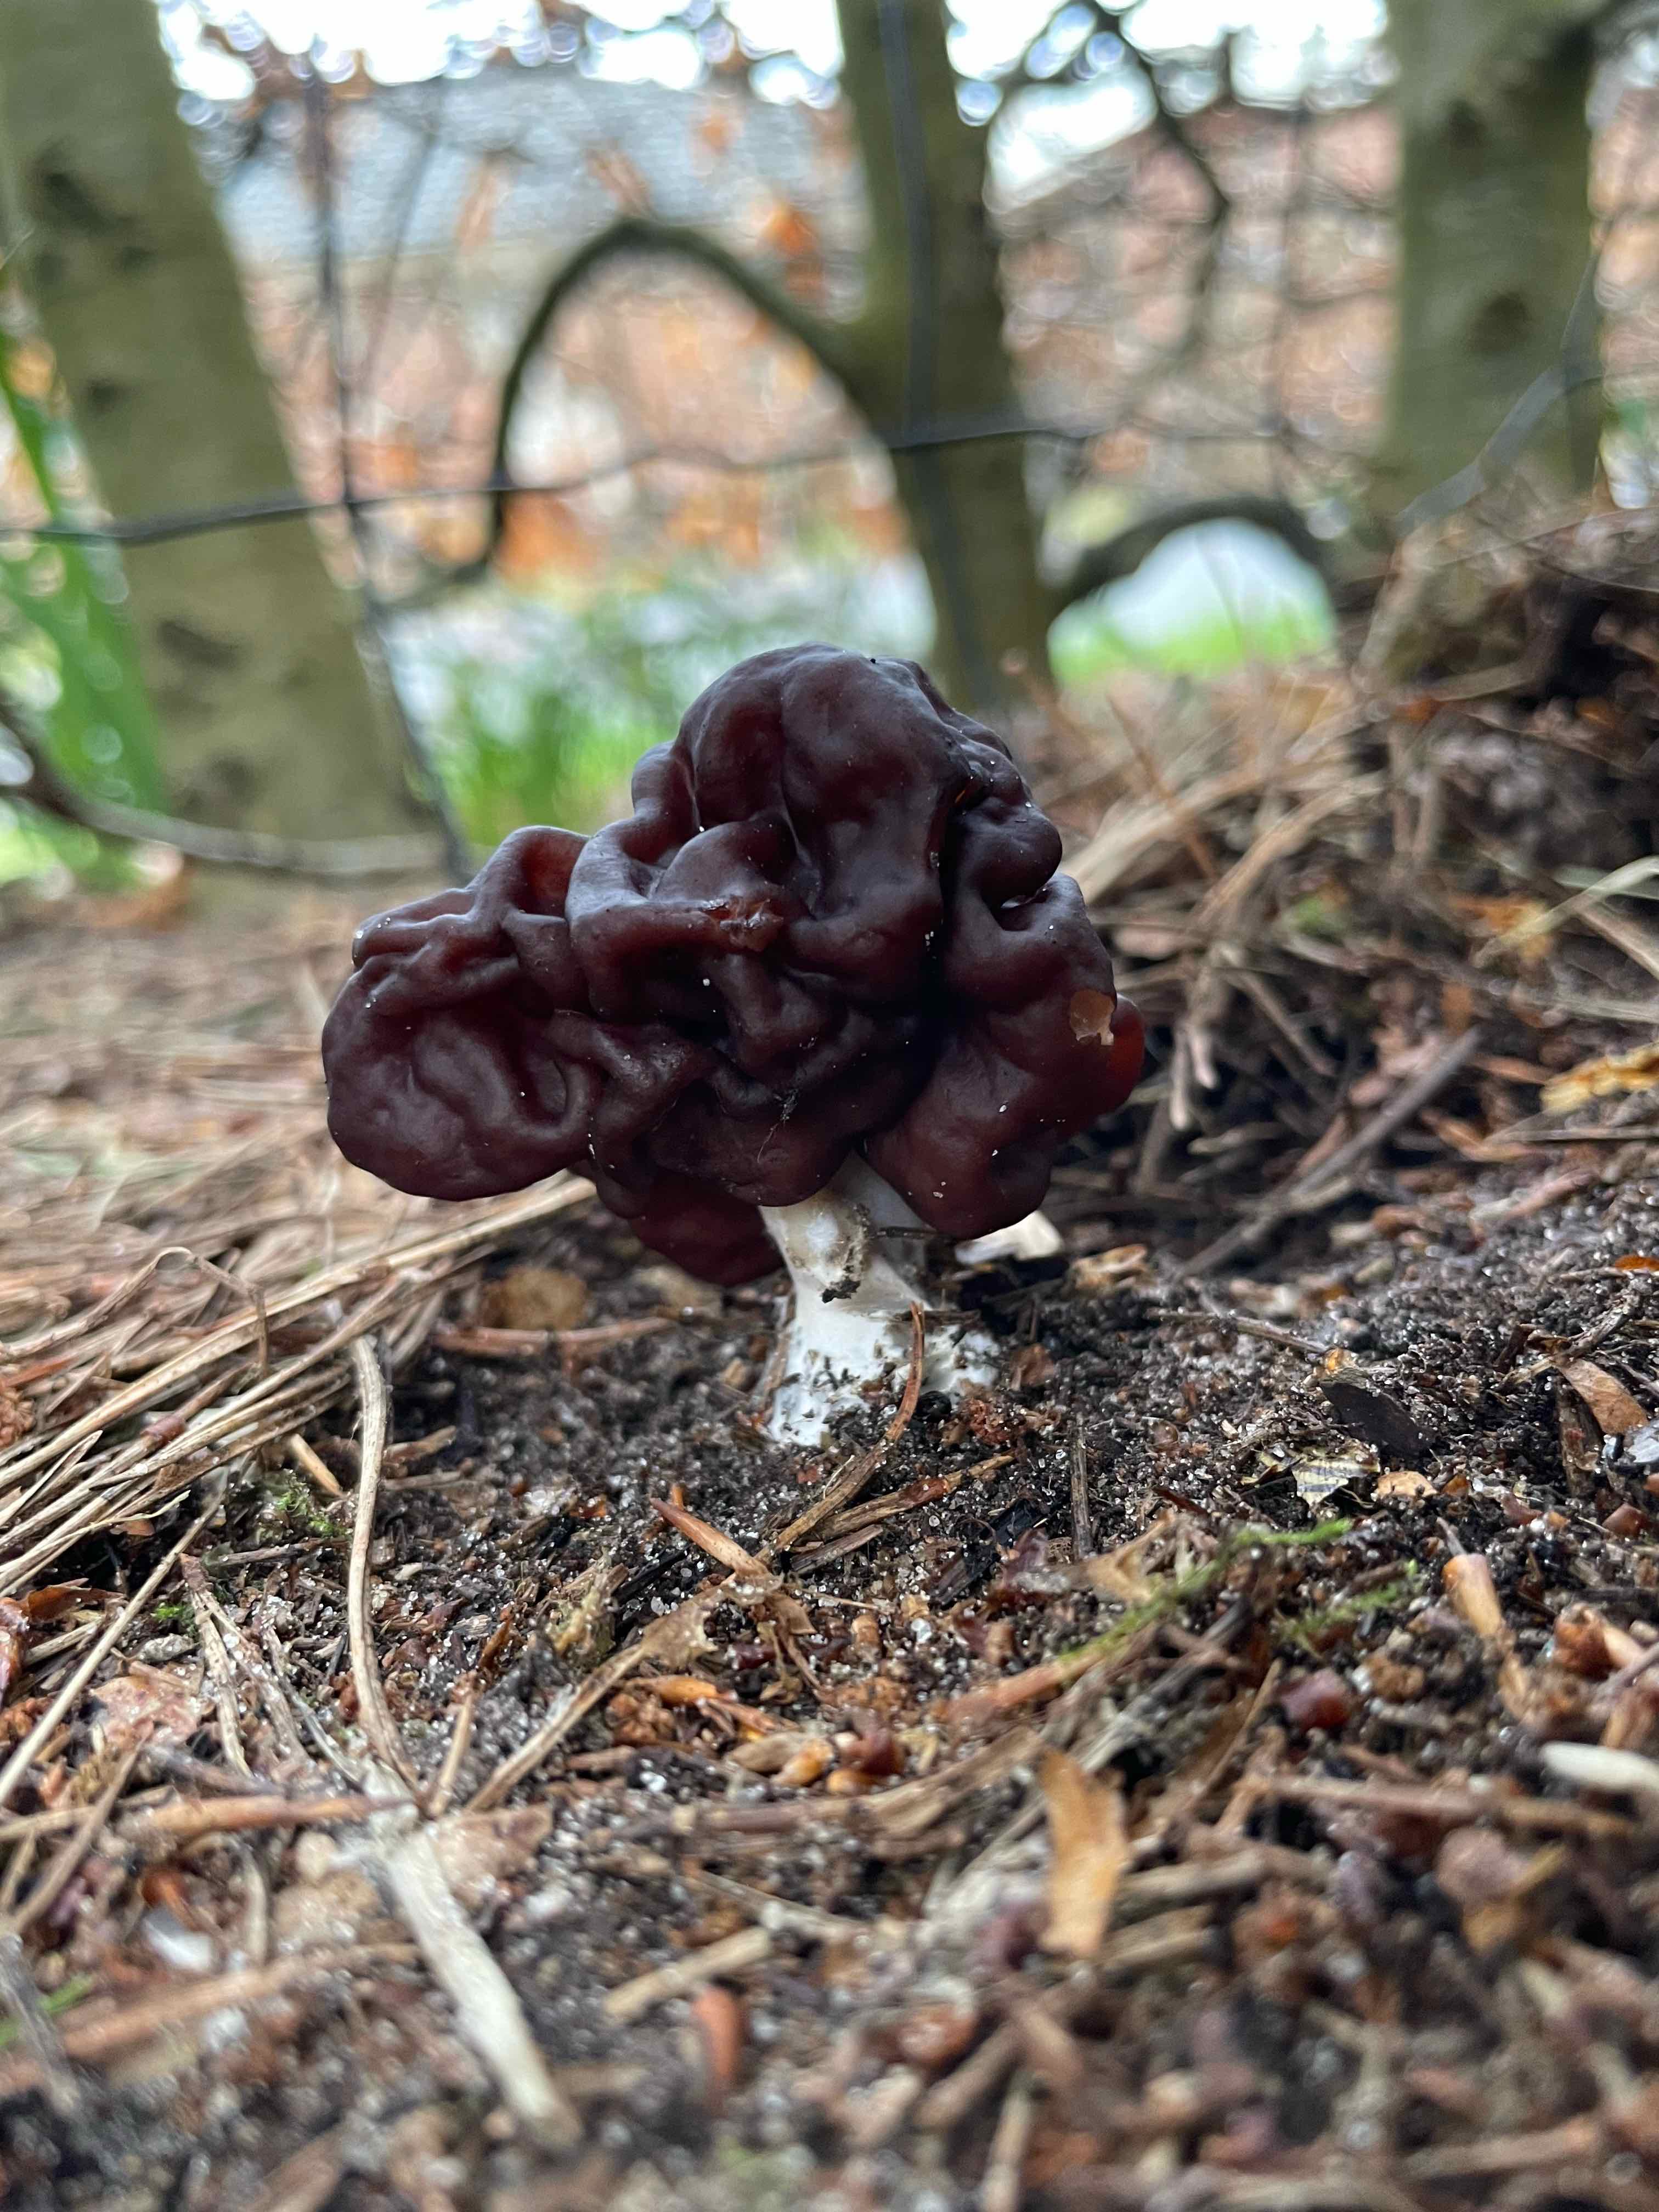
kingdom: Fungi
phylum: Ascomycota
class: Pezizomycetes
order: Pezizales
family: Discinaceae
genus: Gyromitra
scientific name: Gyromitra esculenta
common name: ægte stenmorkel
